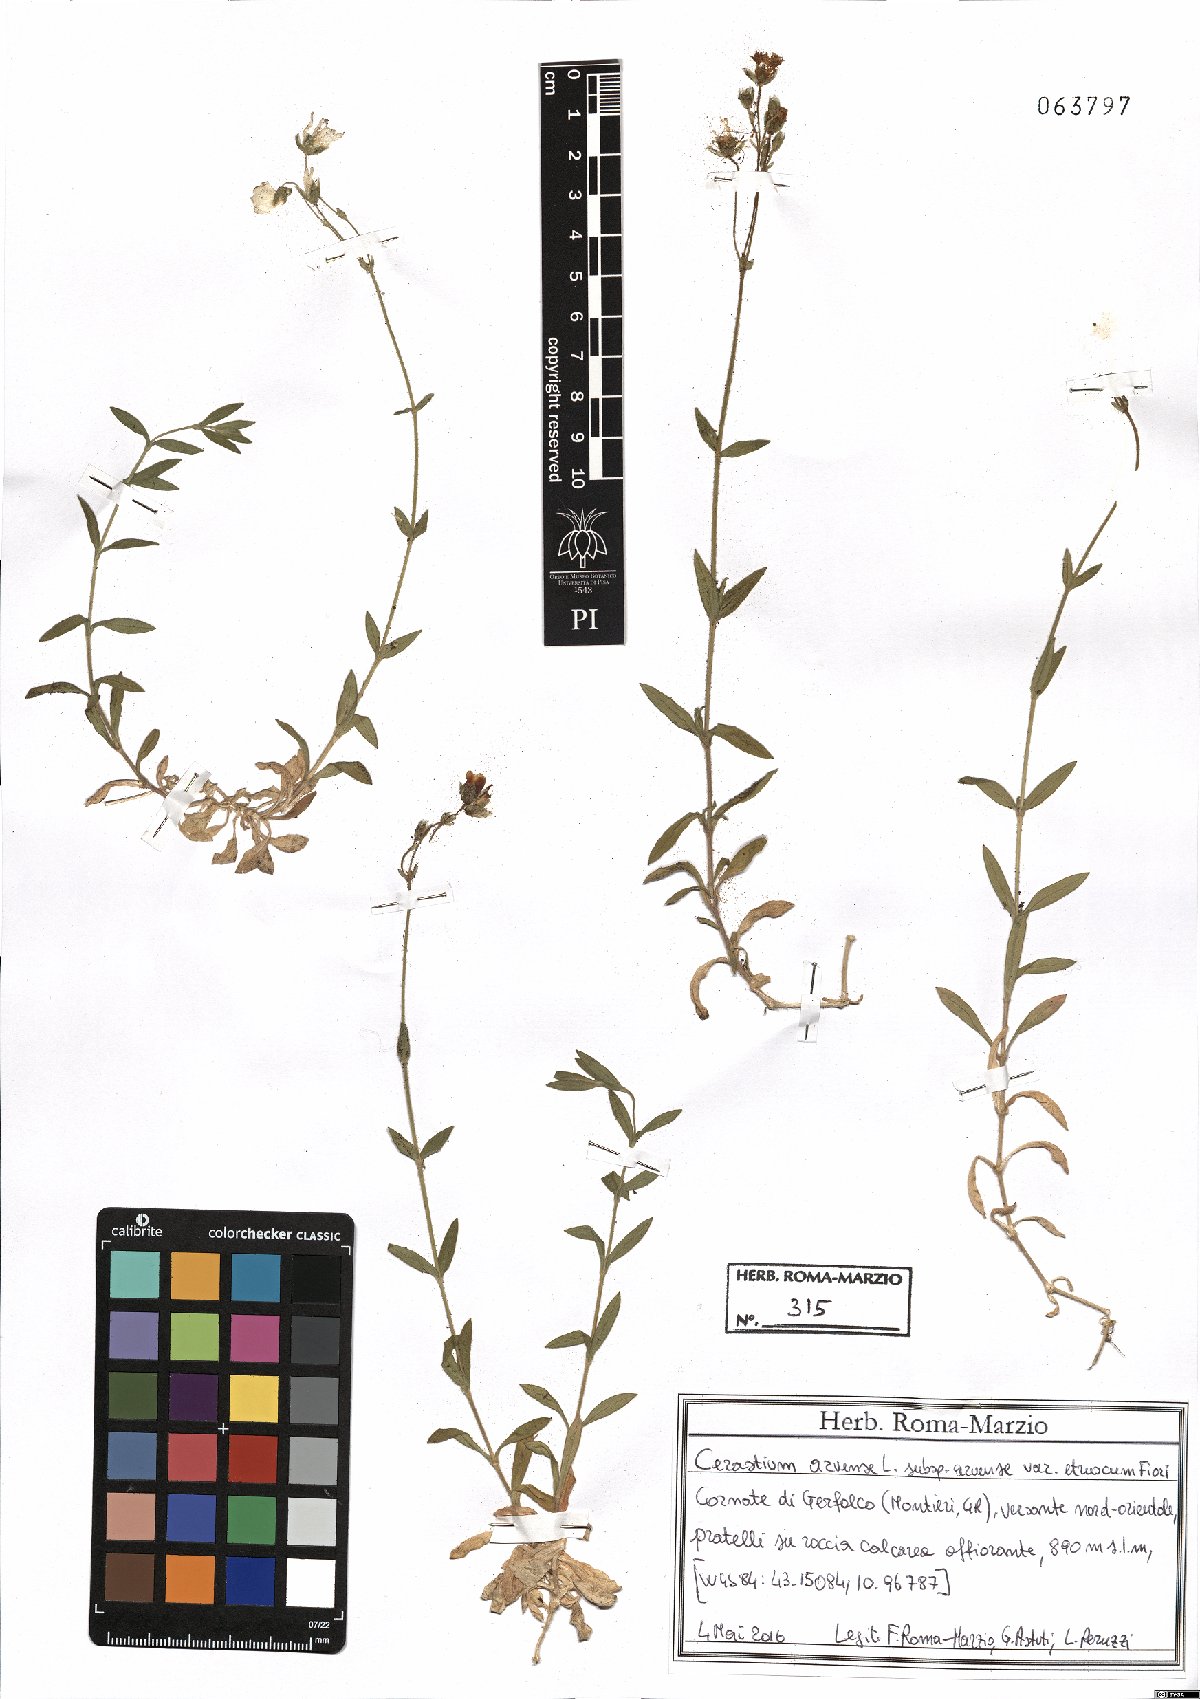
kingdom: Plantae
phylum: Tracheophyta
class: Magnoliopsida
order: Caryophyllales
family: Caryophyllaceae
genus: Cerastium
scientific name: Cerastium arvense
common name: Field mouse-ear
